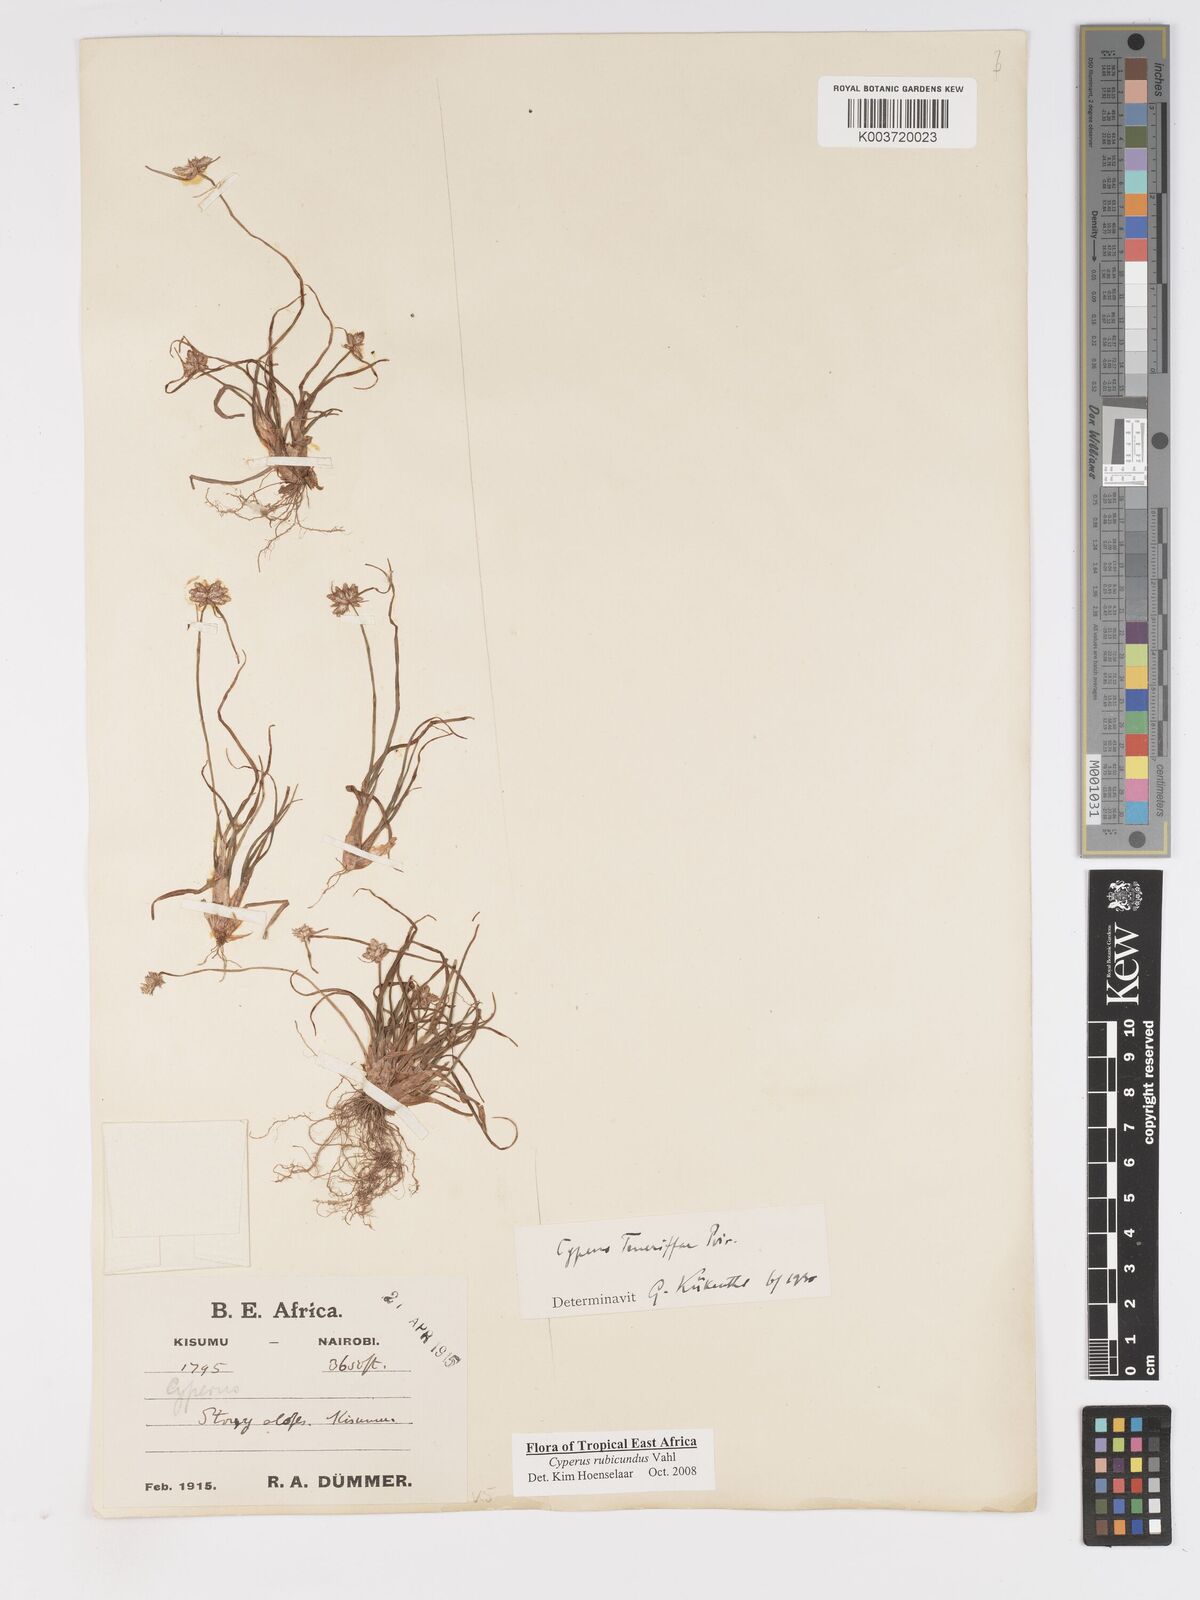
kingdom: Plantae
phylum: Tracheophyta
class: Liliopsida
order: Poales
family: Cyperaceae
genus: Cyperus
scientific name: Cyperus rubicundus
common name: Coco-grass
